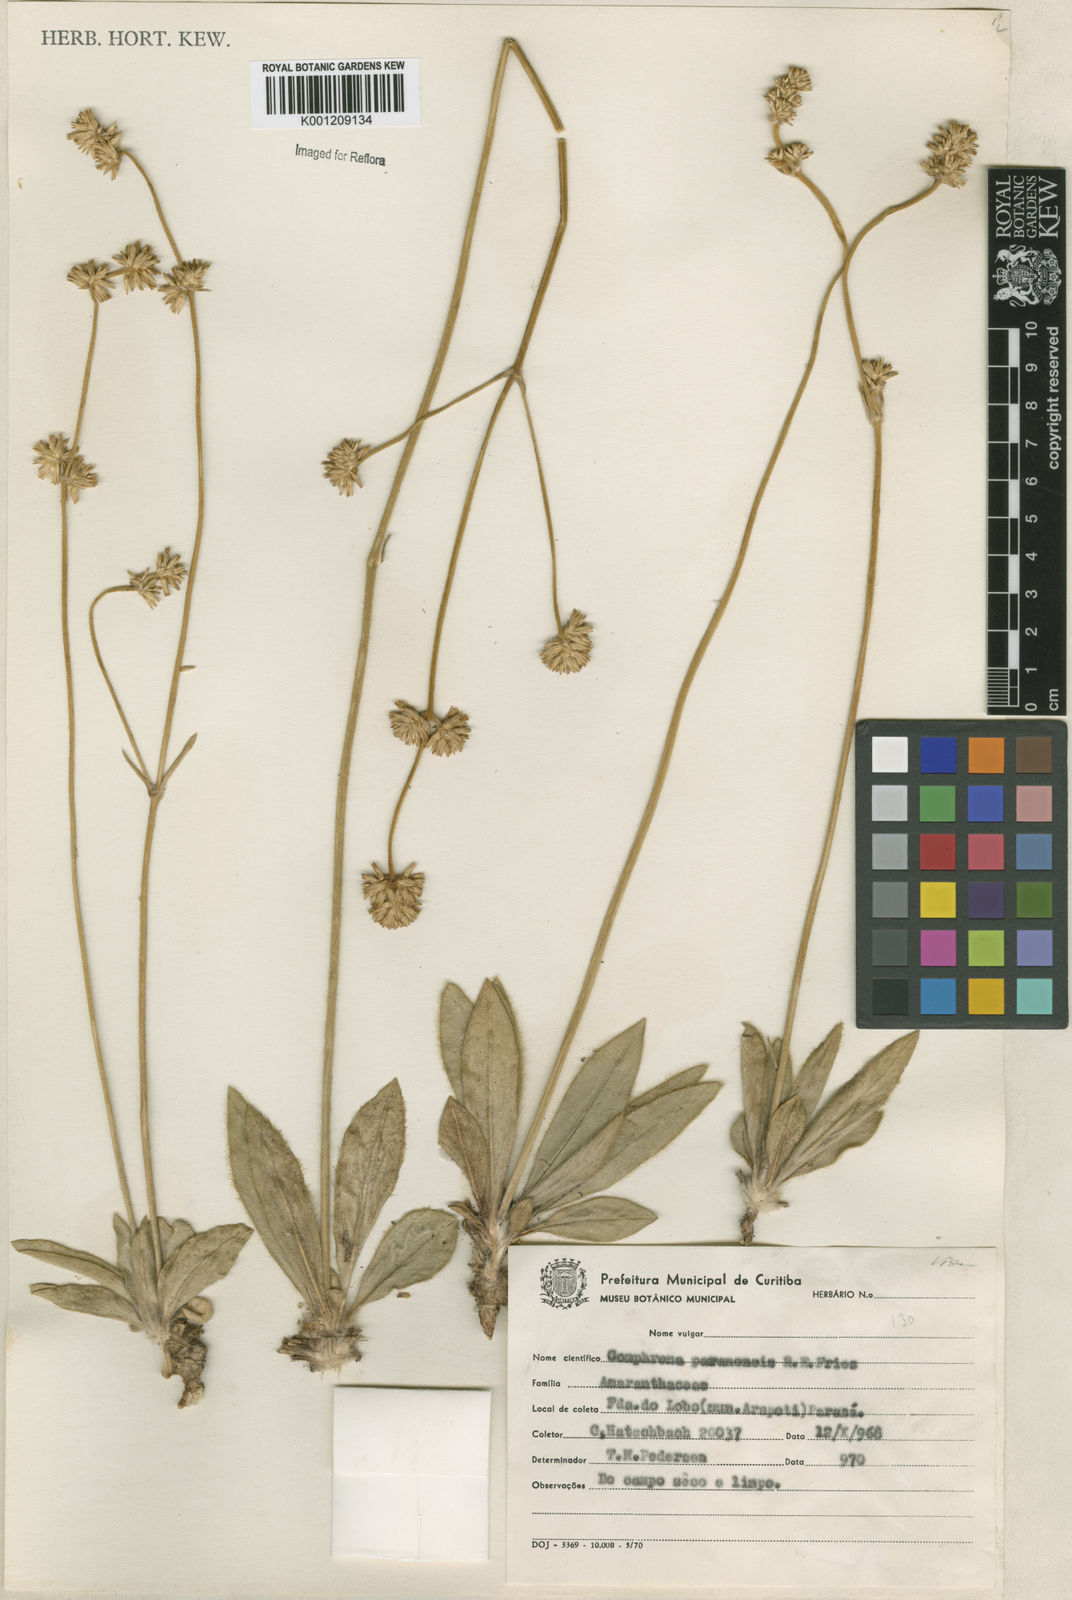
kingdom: Plantae
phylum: Tracheophyta
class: Magnoliopsida
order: Caryophyllales
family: Amaranthaceae
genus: Gomphrena
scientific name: Gomphrena paranensis
